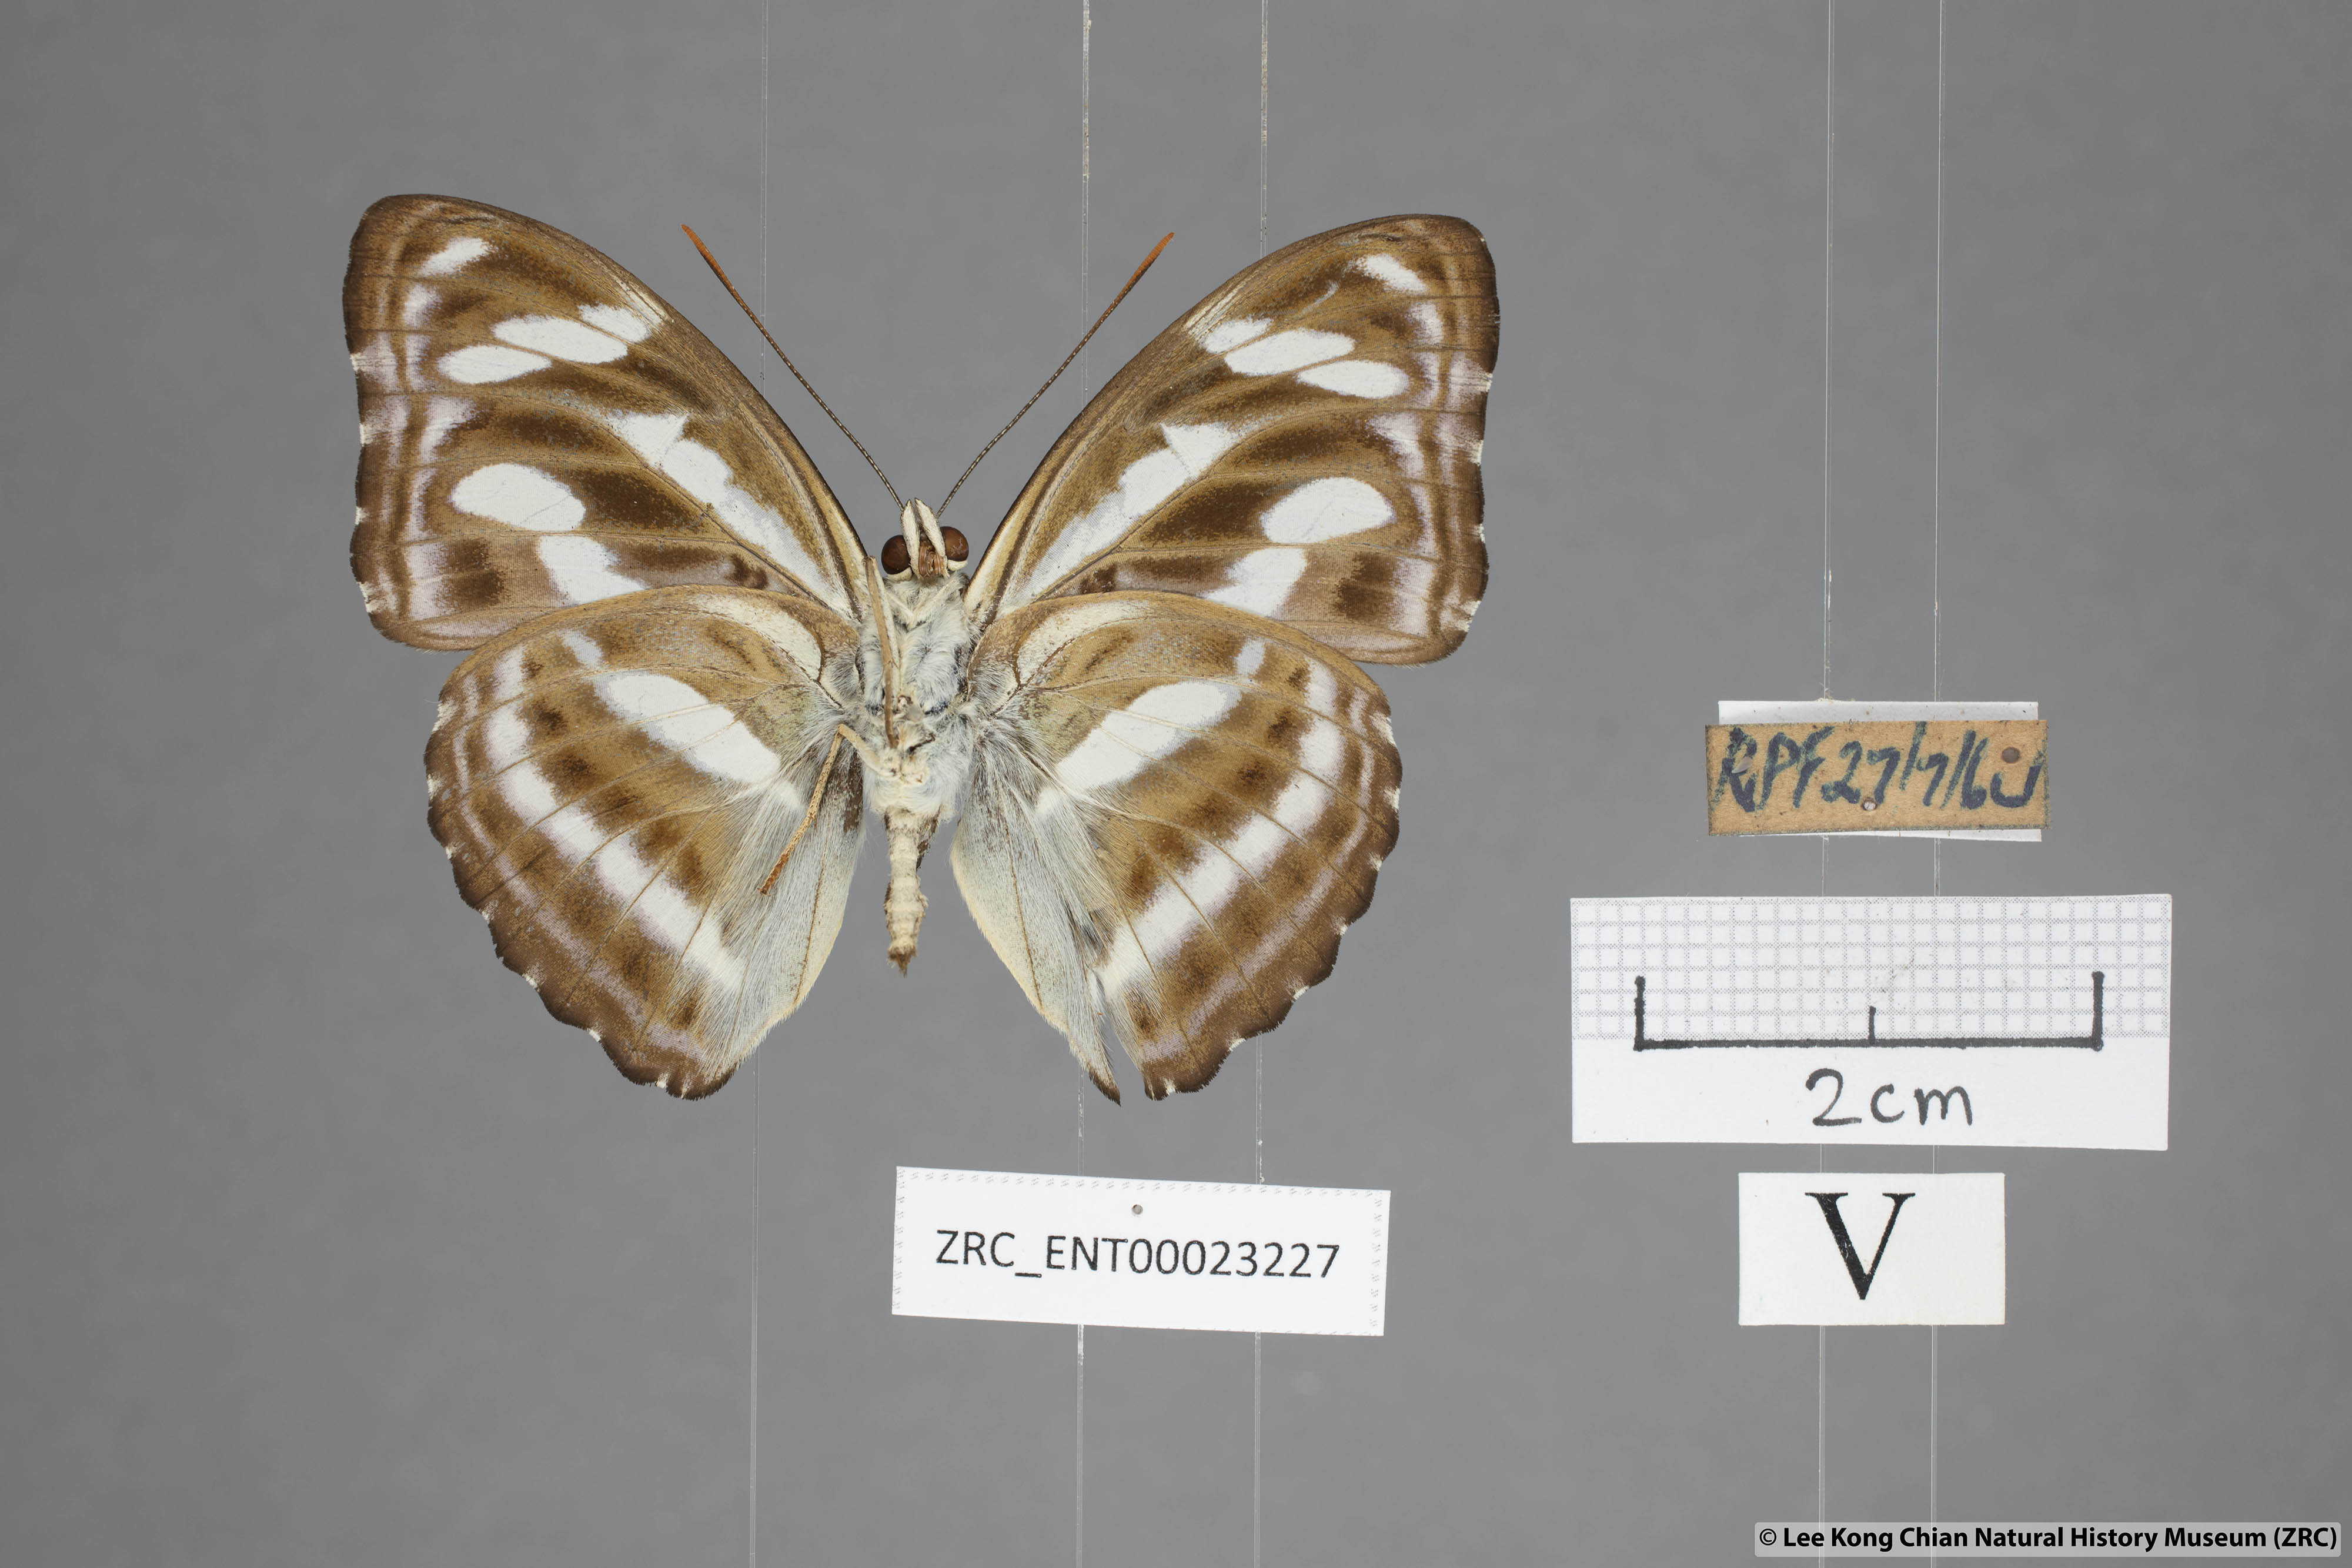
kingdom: Animalia
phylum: Arthropoda
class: Insecta
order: Lepidoptera
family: Nymphalidae
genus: Parathyma
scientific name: Parathyma nefte
